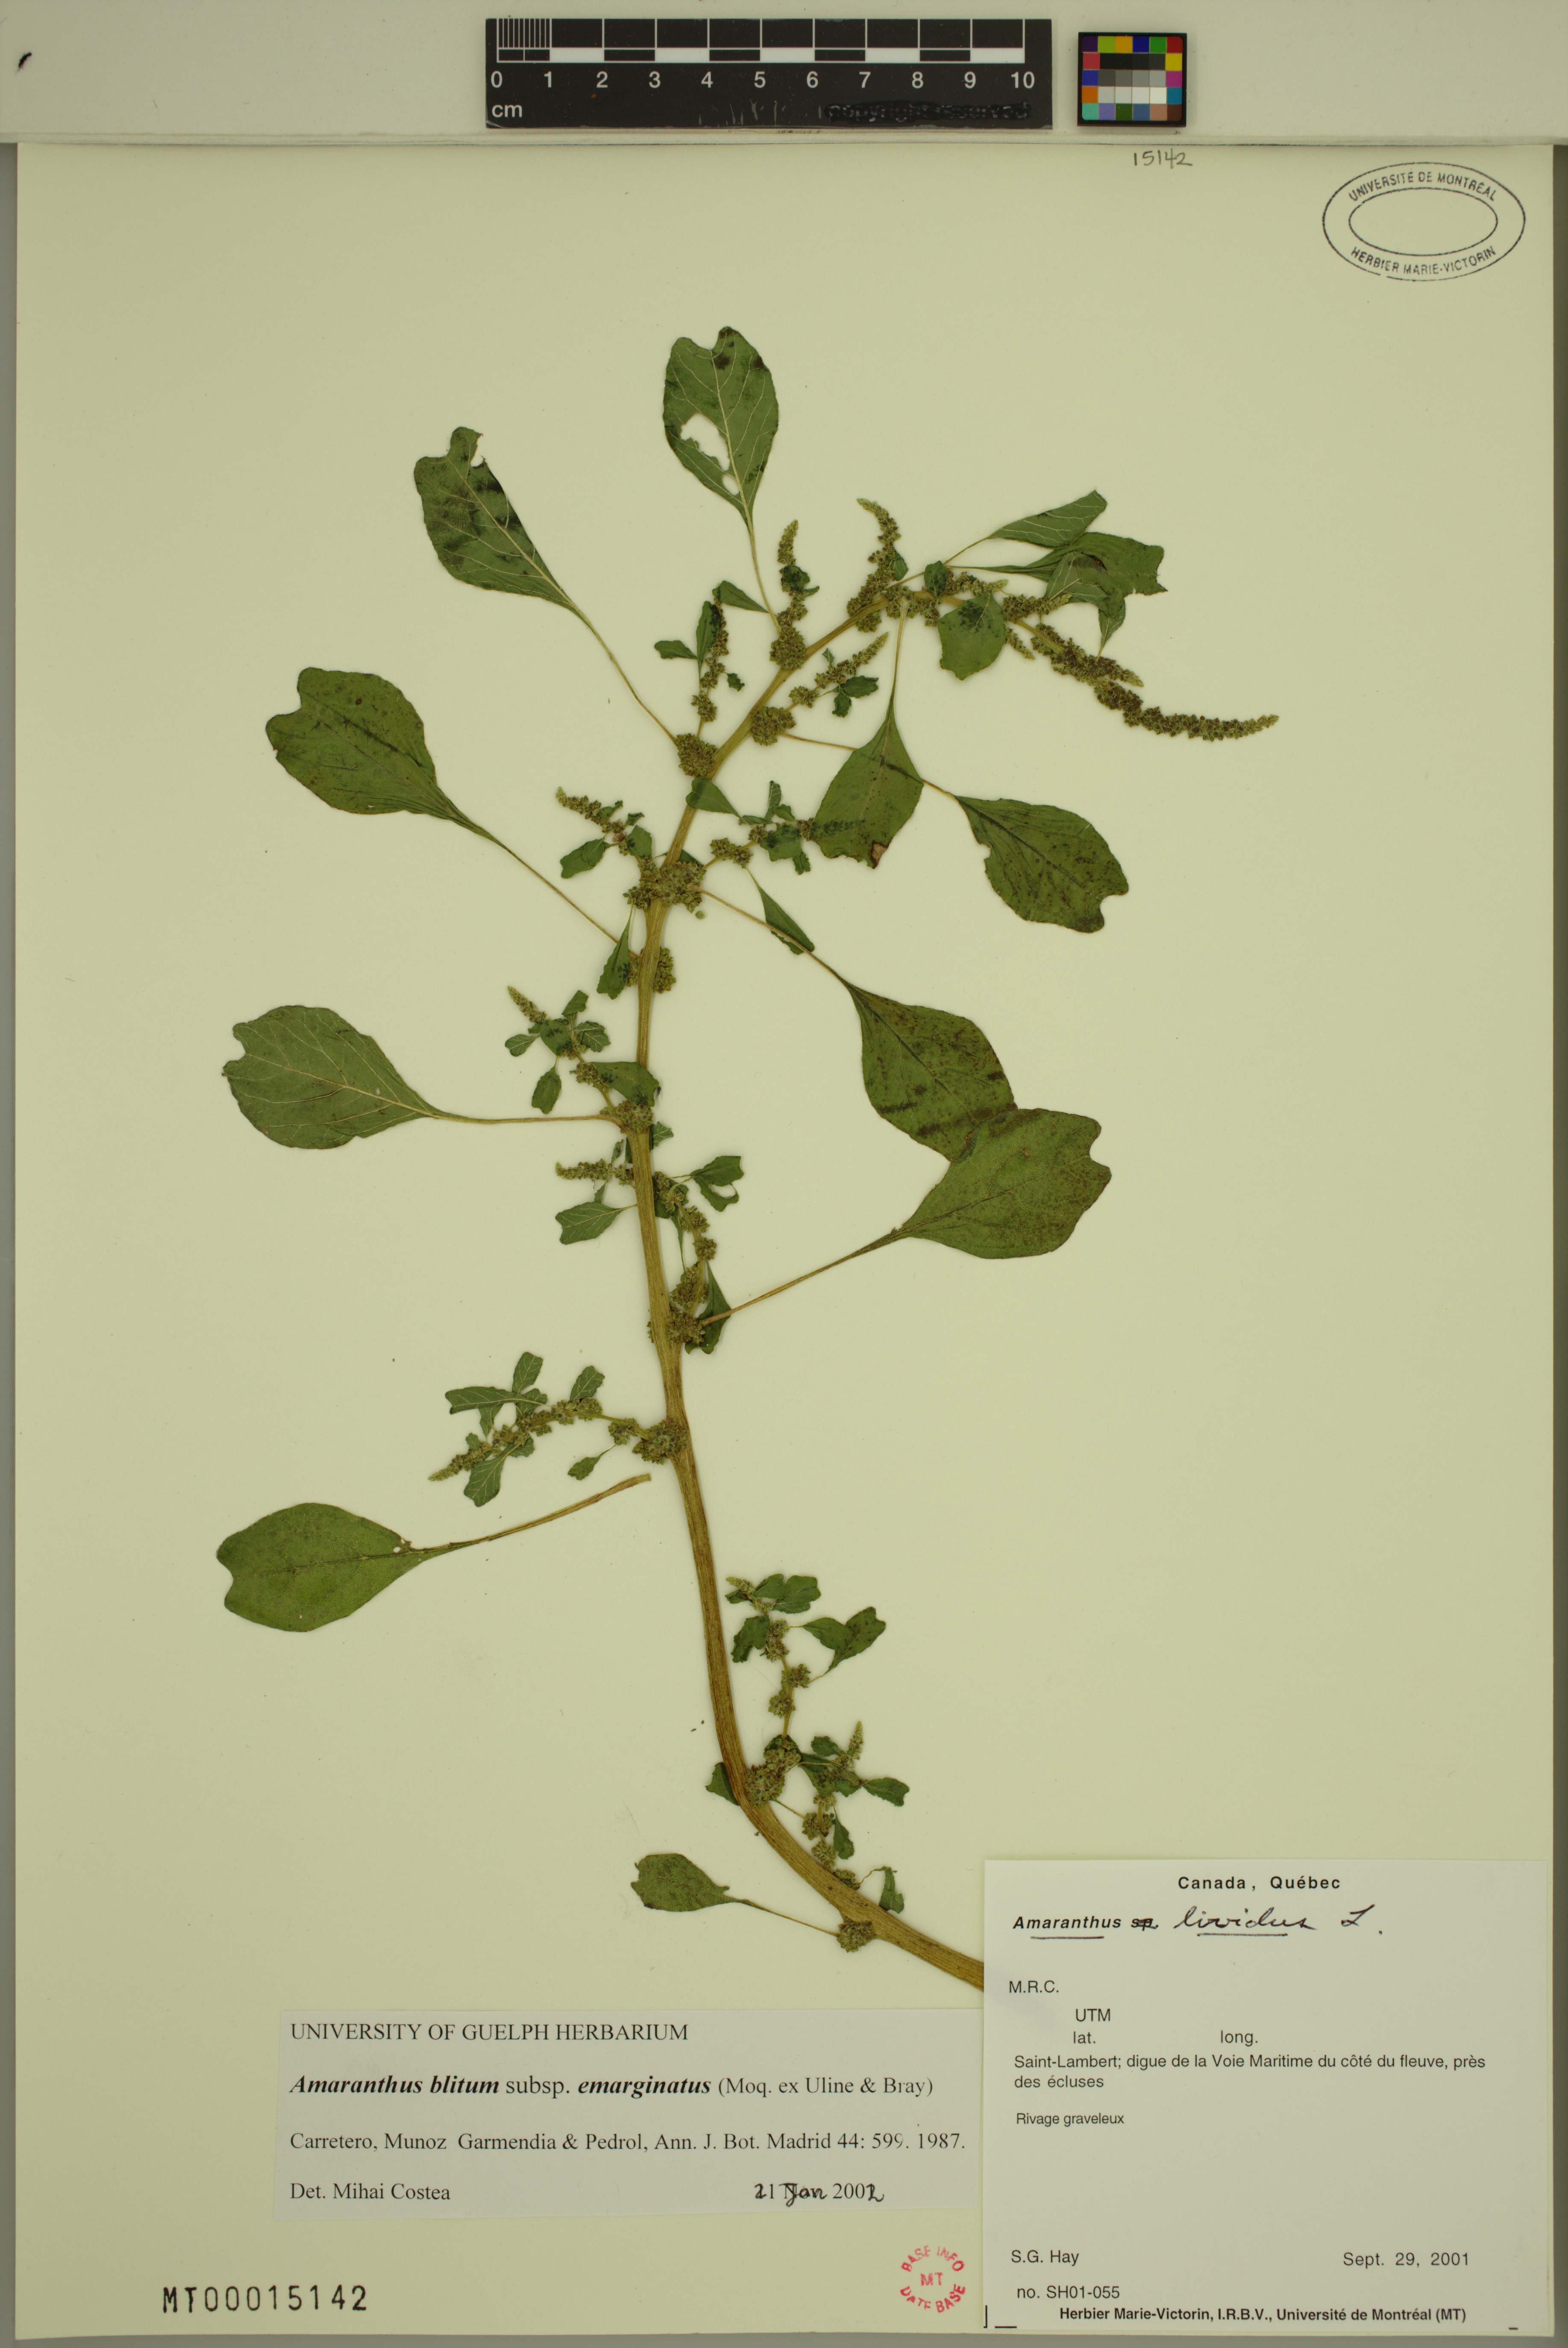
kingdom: Plantae
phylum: Tracheophyta
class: Magnoliopsida
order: Caryophyllales
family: Amaranthaceae
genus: Amaranthus
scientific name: Amaranthus emarginatus
